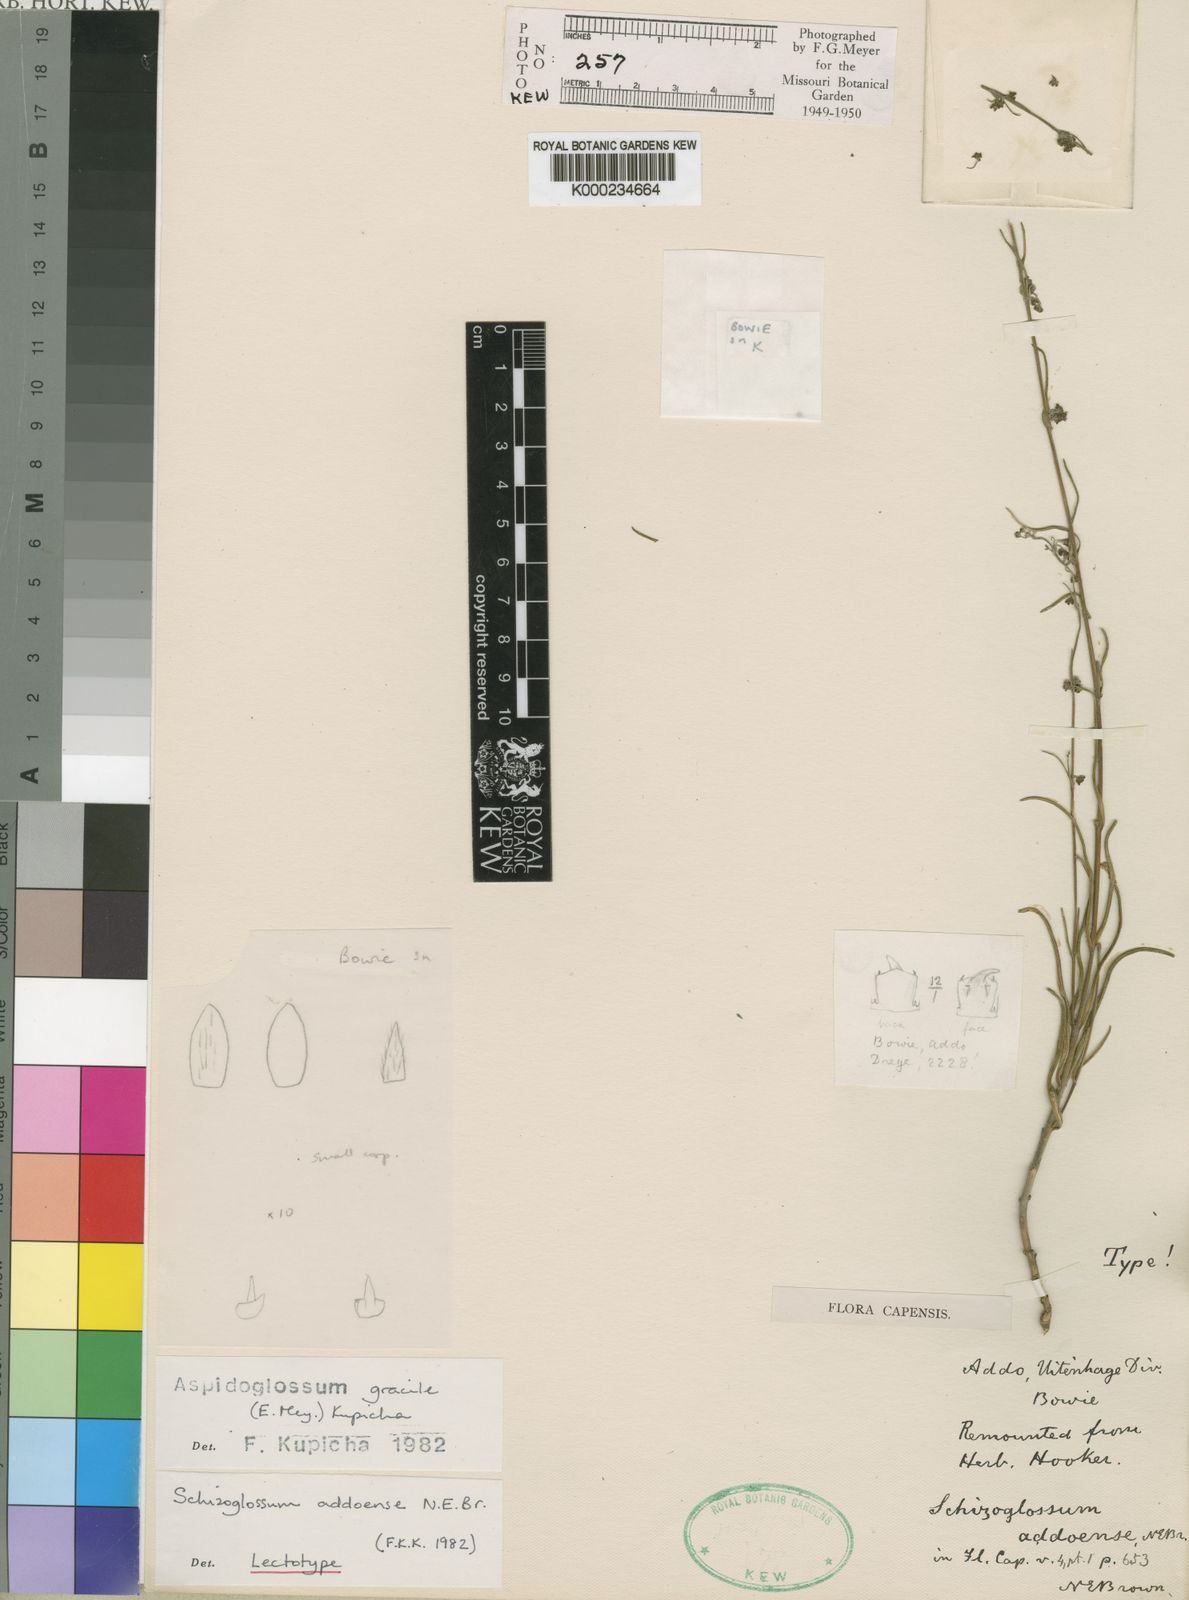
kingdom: Plantae
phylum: Tracheophyta
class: Magnoliopsida
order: Gentianales
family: Apocynaceae
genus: Aspidoglossum
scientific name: Aspidoglossum gracile
